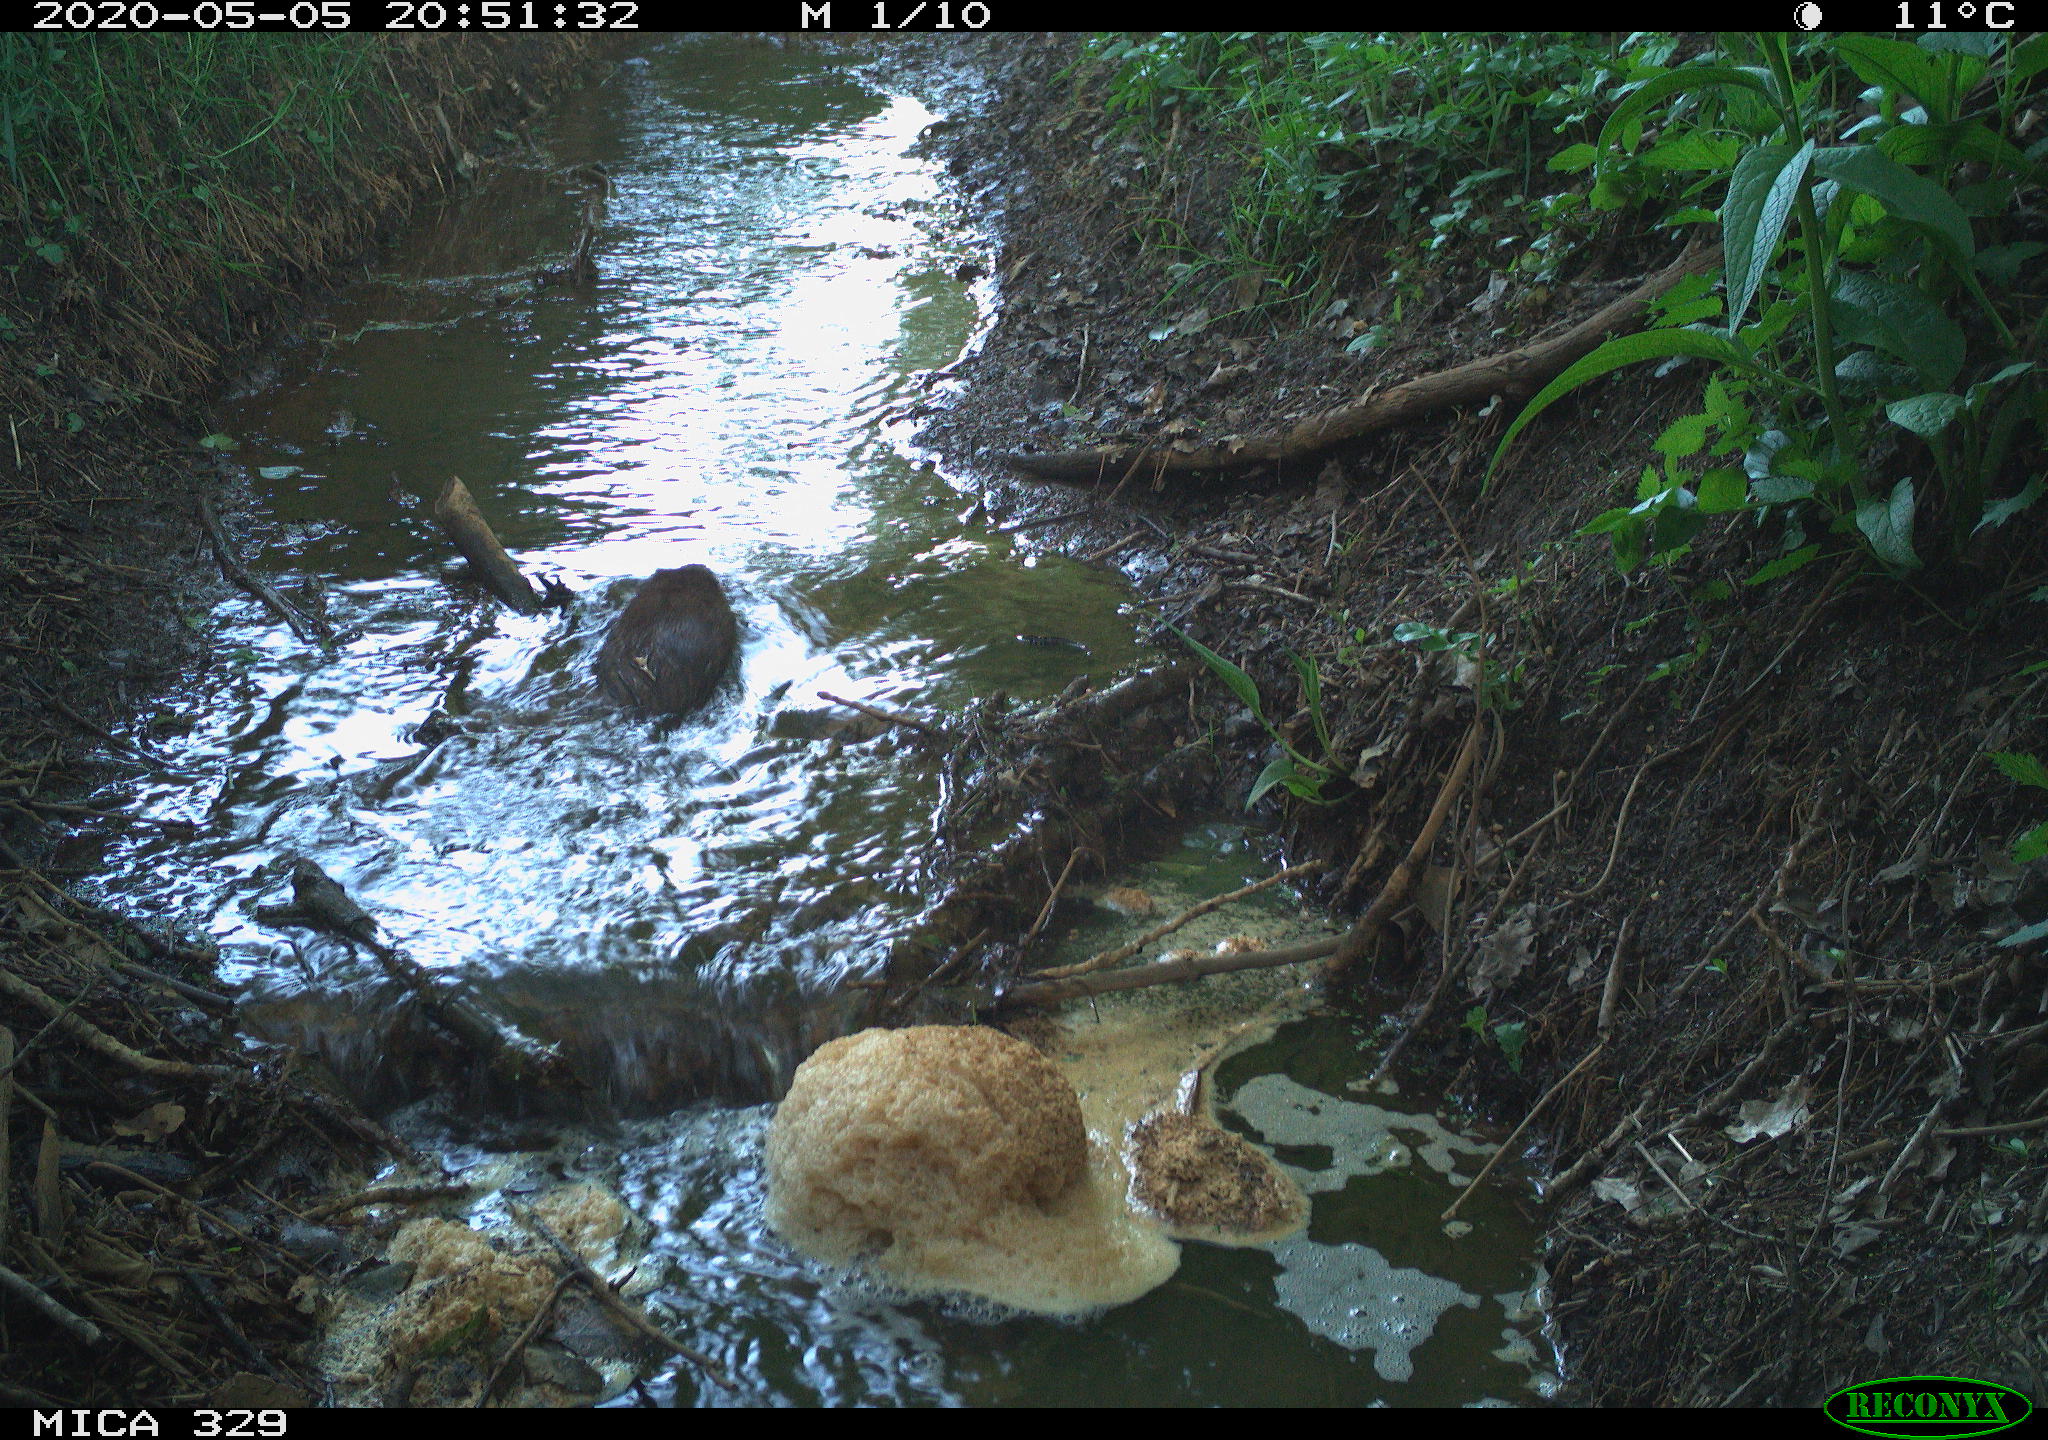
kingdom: Animalia
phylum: Chordata
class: Mammalia
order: Rodentia
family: Cricetidae
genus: Ondatra
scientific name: Ondatra zibethicus
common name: Muskrat
